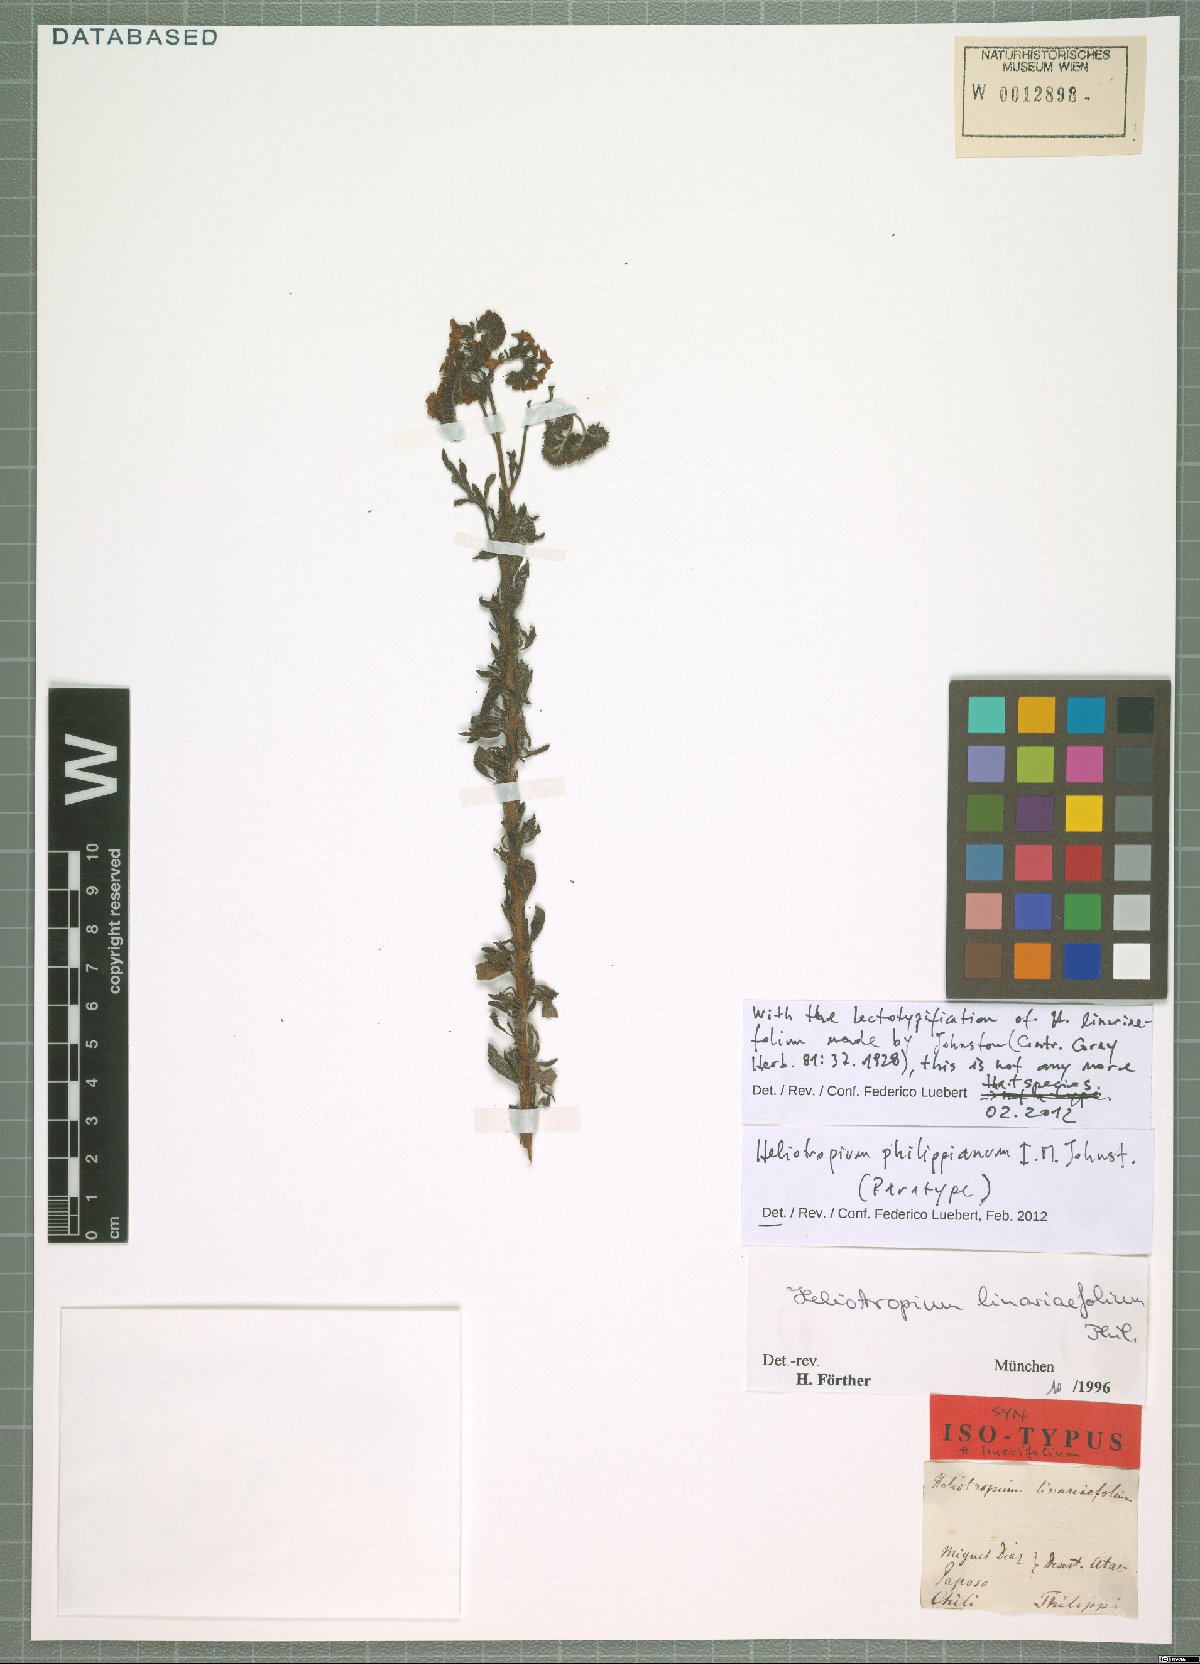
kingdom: Plantae
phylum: Tracheophyta
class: Magnoliopsida
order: Boraginales
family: Heliotropiaceae
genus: Heliotropium
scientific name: Heliotropium philippianum
